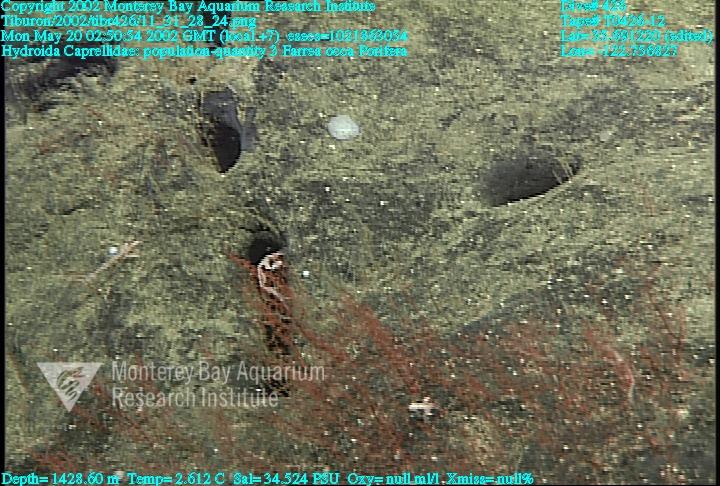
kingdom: Animalia
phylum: Porifera
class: Hexactinellida
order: Sceptrulophora
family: Farreidae
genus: Farrea
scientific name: Farrea occa
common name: Reversed glass sponge
